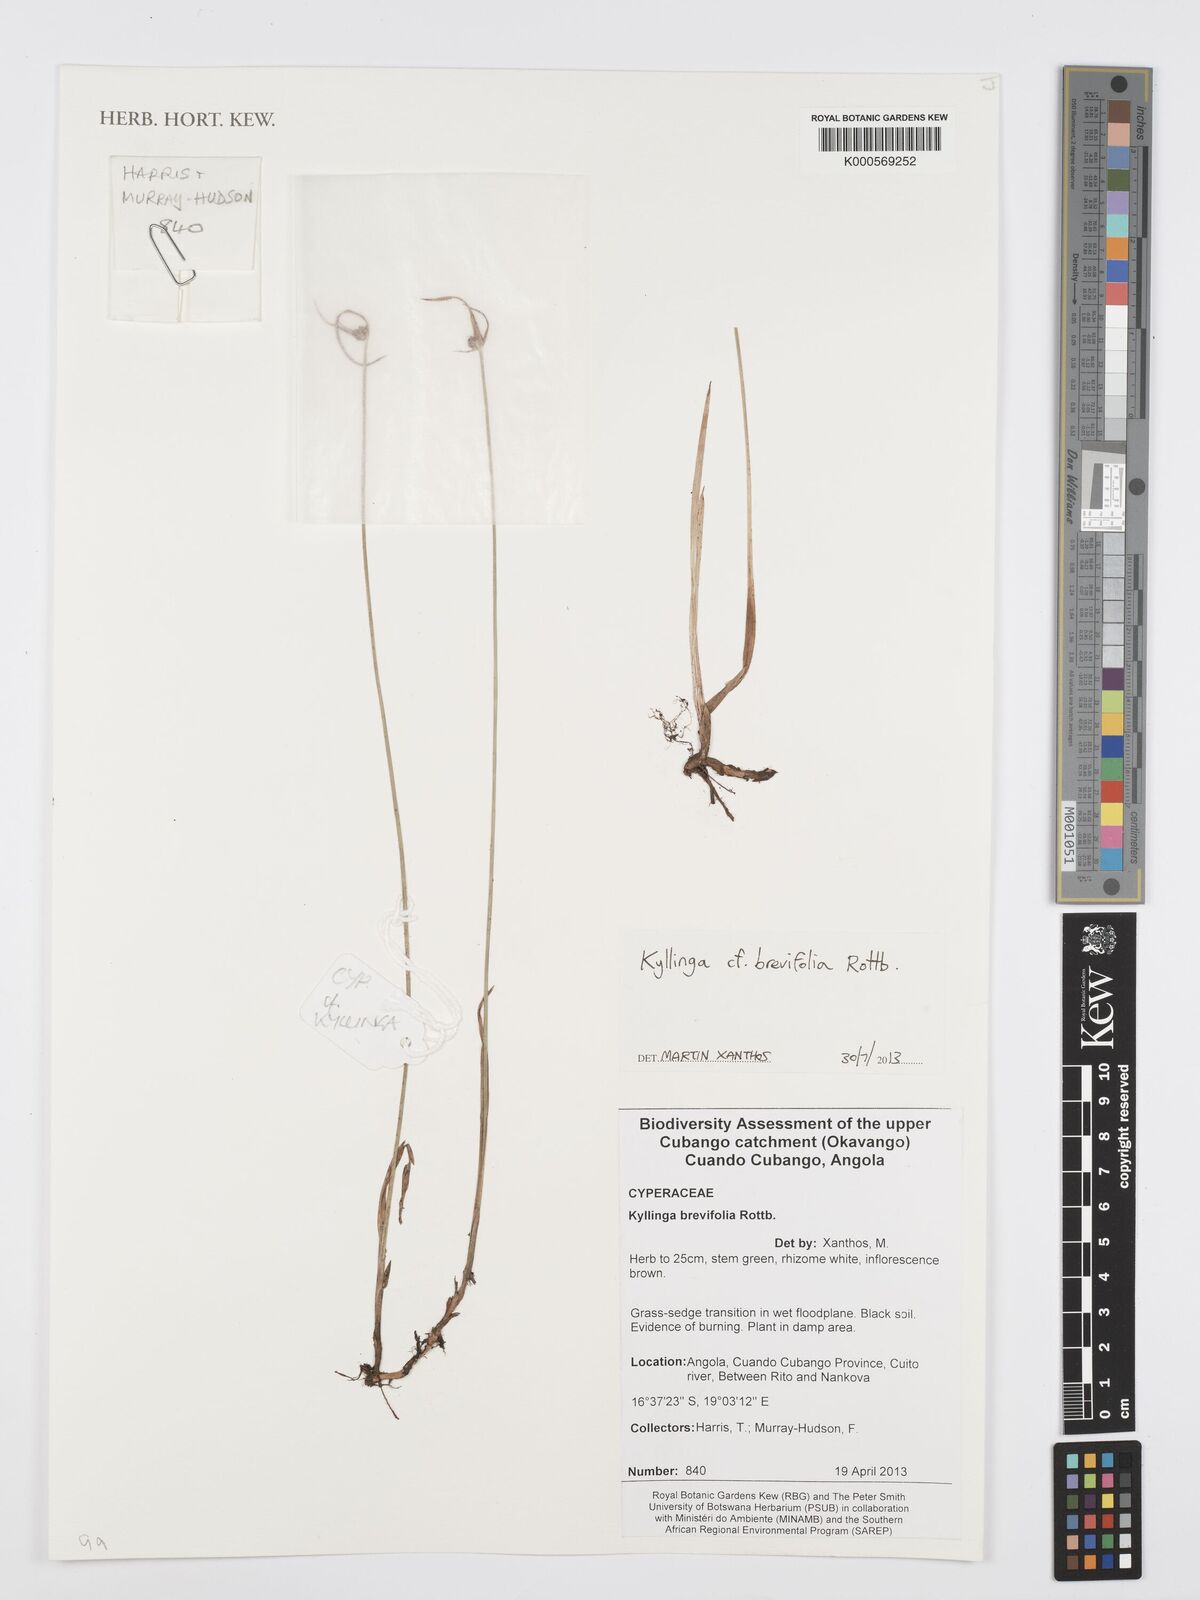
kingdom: Plantae
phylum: Tracheophyta
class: Liliopsida
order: Poales
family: Cyperaceae
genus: Cyperus
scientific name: Cyperus brevifolius
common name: Globe kyllinga
